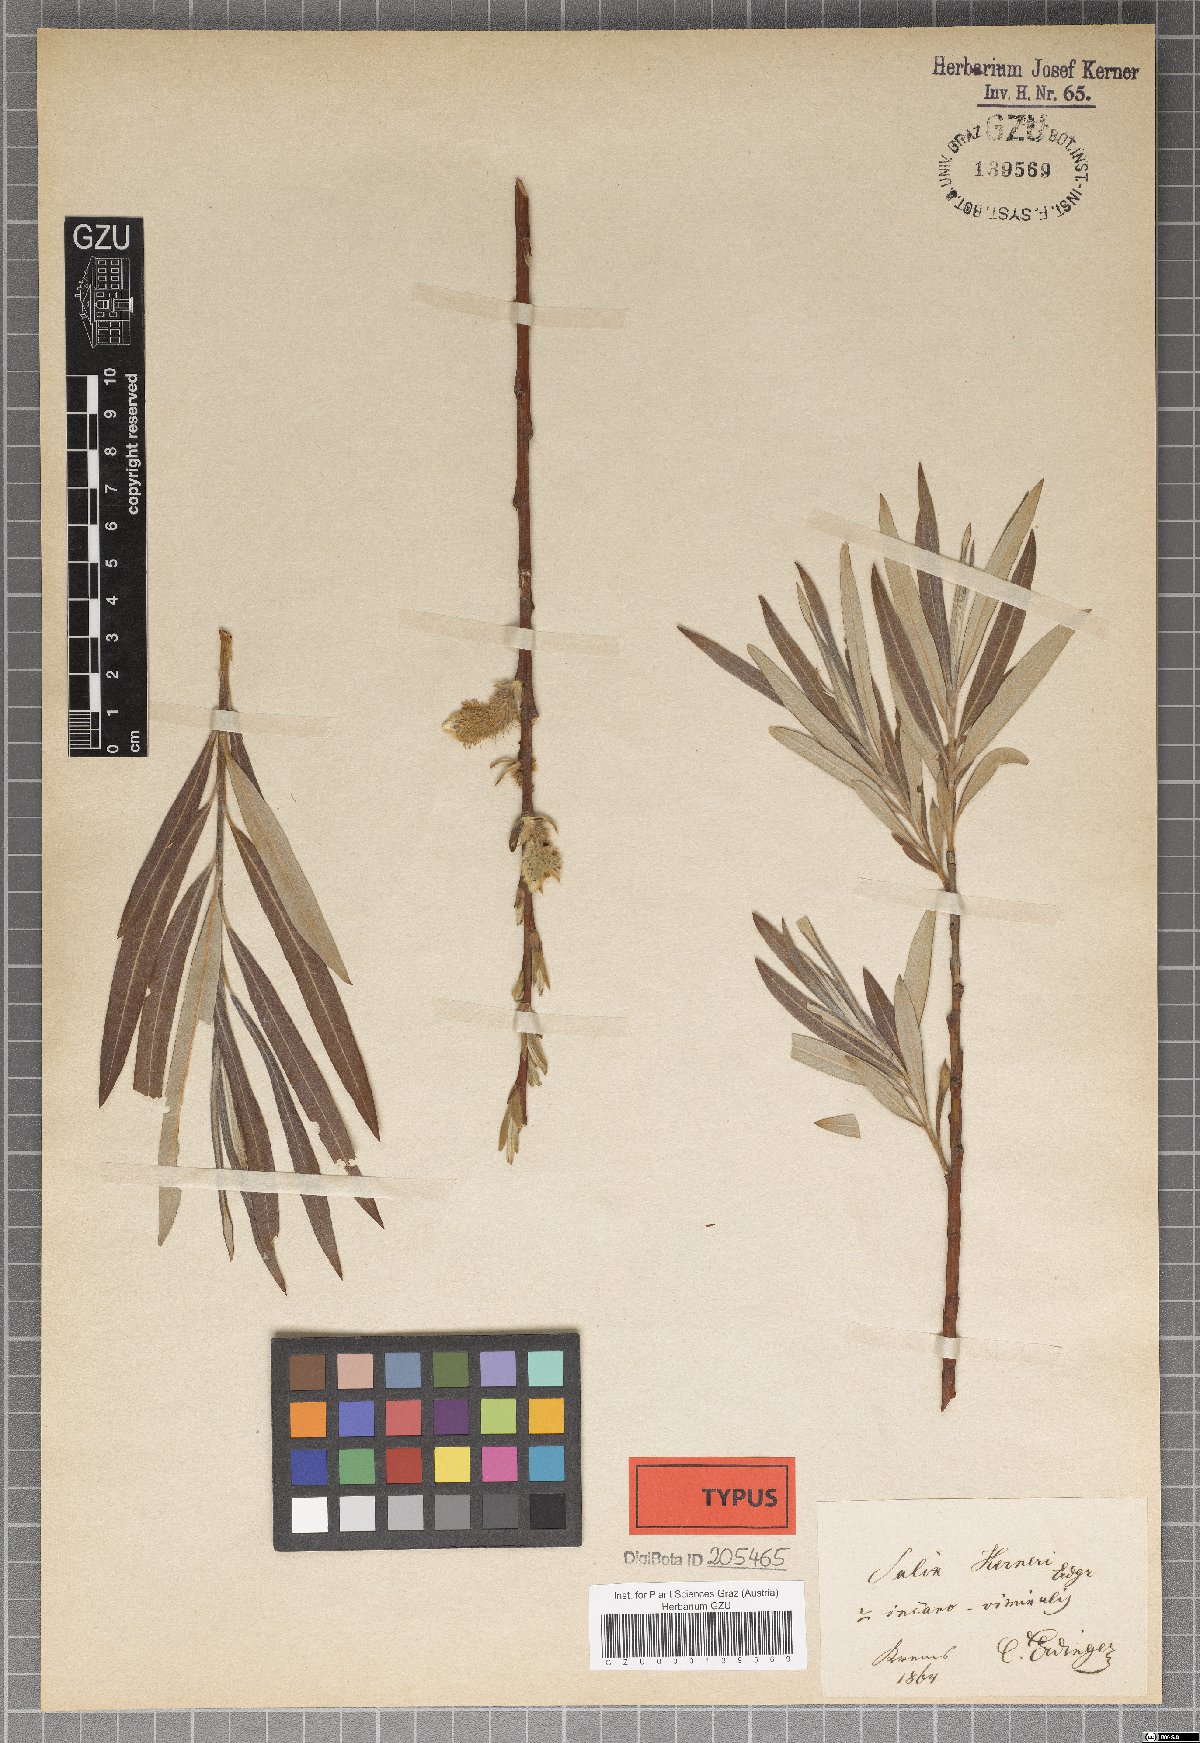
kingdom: Plantae
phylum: Tracheophyta
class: Magnoliopsida
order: Malpighiales
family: Salicaceae
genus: Salix
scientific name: Salix kerneri
